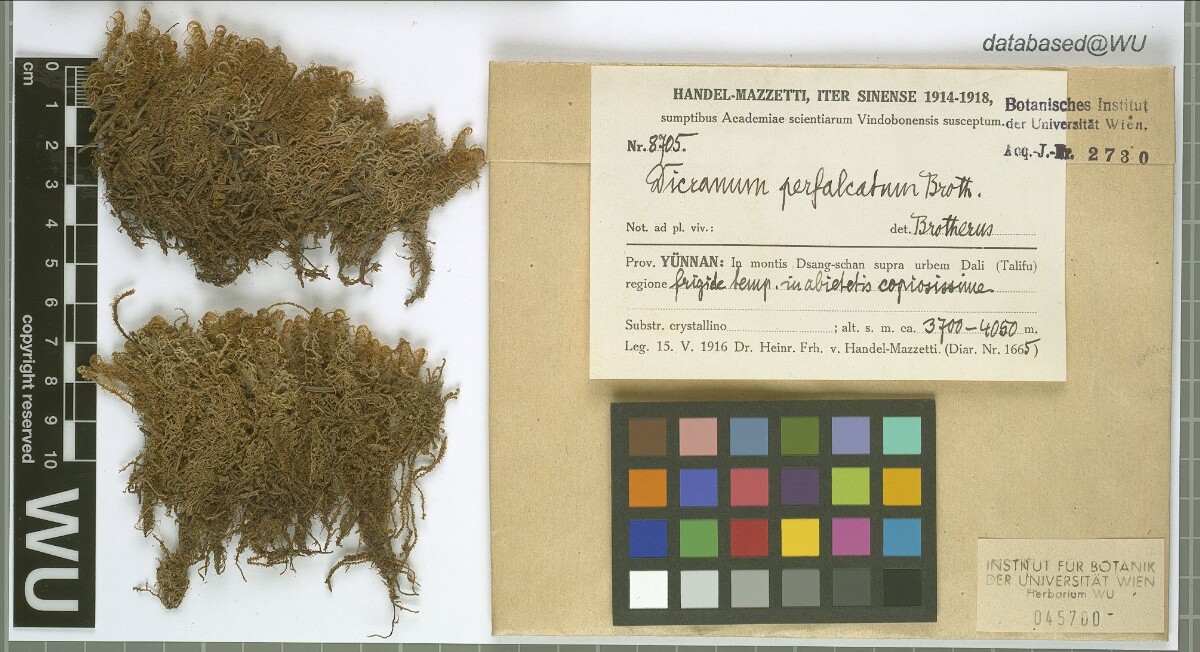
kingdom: Plantae
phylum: Bryophyta
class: Bryopsida
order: Dicranales
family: Dicranaceae
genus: Dicranum
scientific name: Dicranum drummondii
